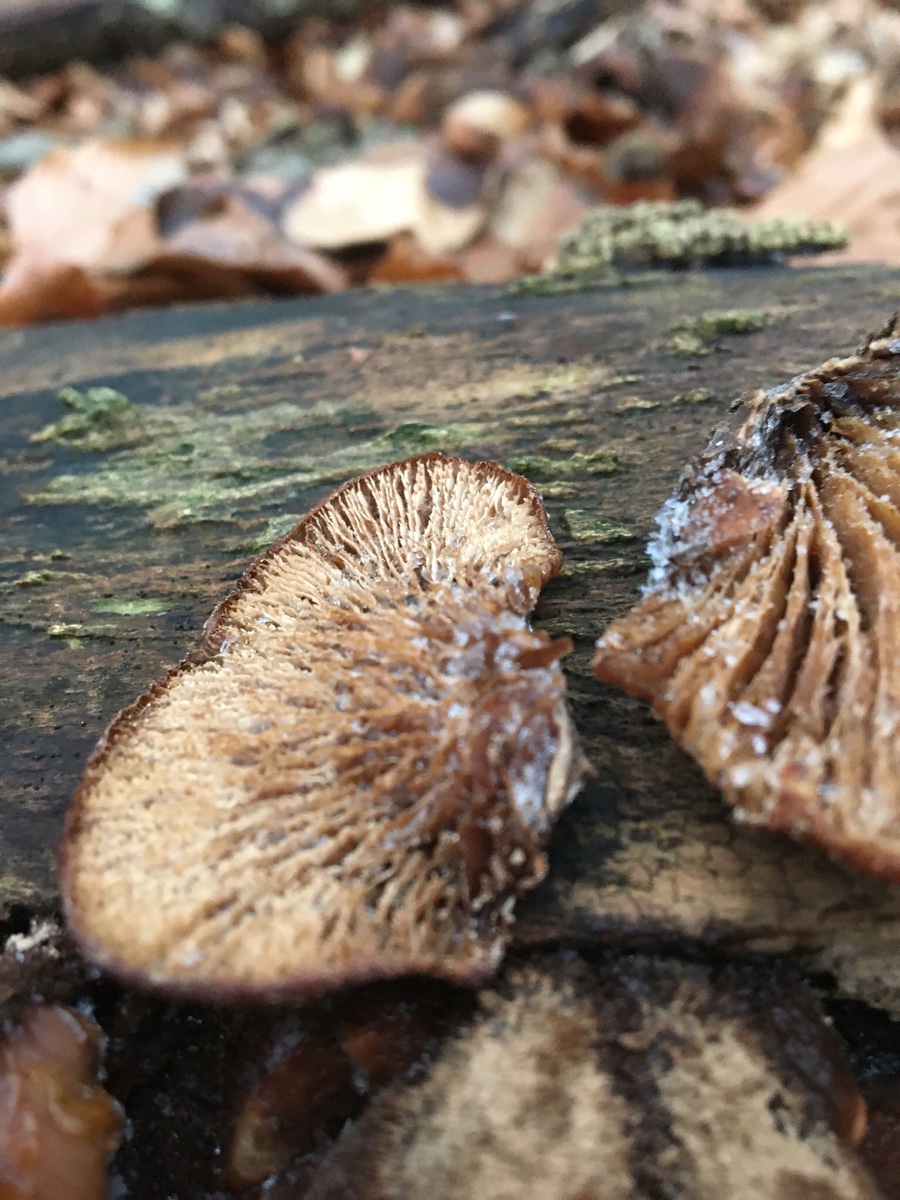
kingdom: Fungi
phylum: Basidiomycota
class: Agaricomycetes
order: Russulales
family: Auriscalpiaceae
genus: Lentinellus
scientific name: Lentinellus
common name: savbladhat
